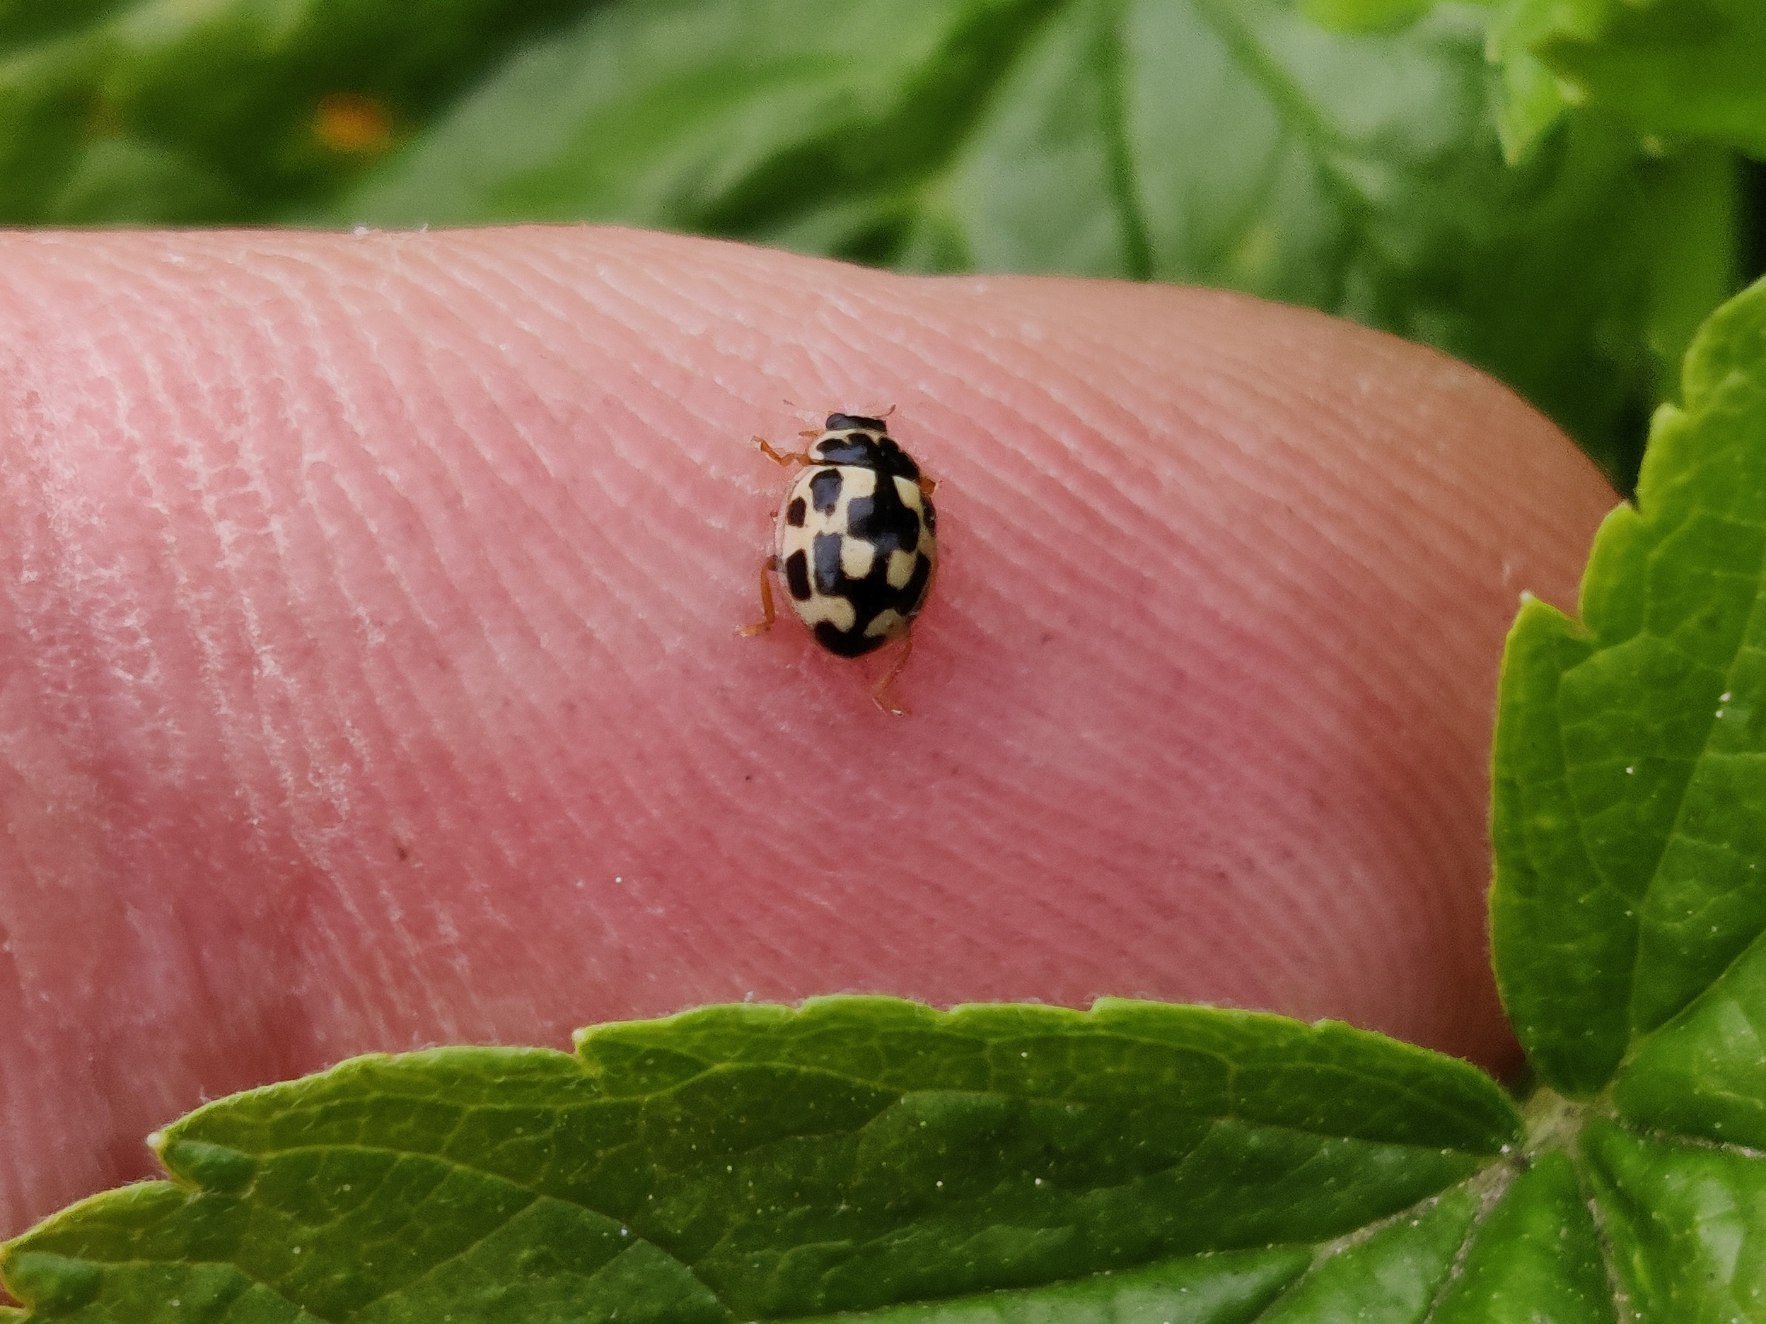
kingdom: Animalia
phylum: Arthropoda
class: Insecta
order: Coleoptera
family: Coccinellidae
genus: Propylaea
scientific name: Propylaea quatuordecimpunctata
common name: Skakbræt
